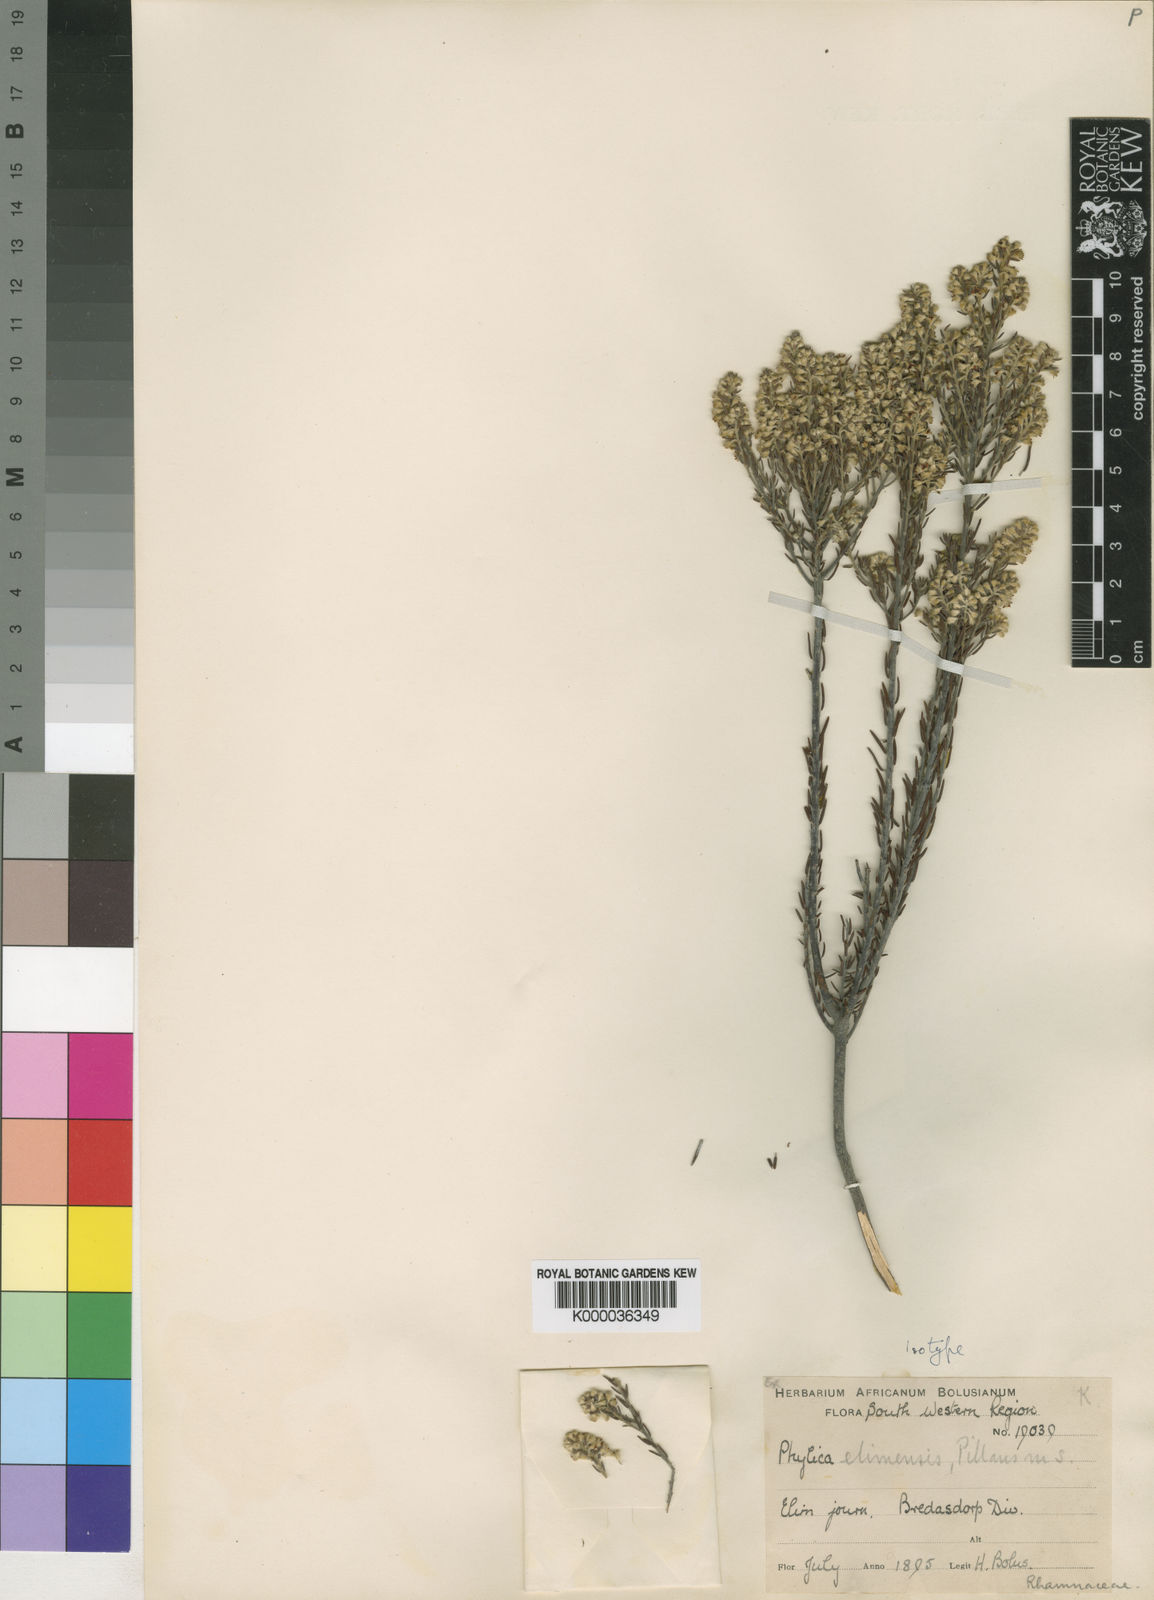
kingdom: Plantae
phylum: Tracheophyta
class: Magnoliopsida
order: Rosales
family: Rhamnaceae
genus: Phylica
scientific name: Phylica elimensis
